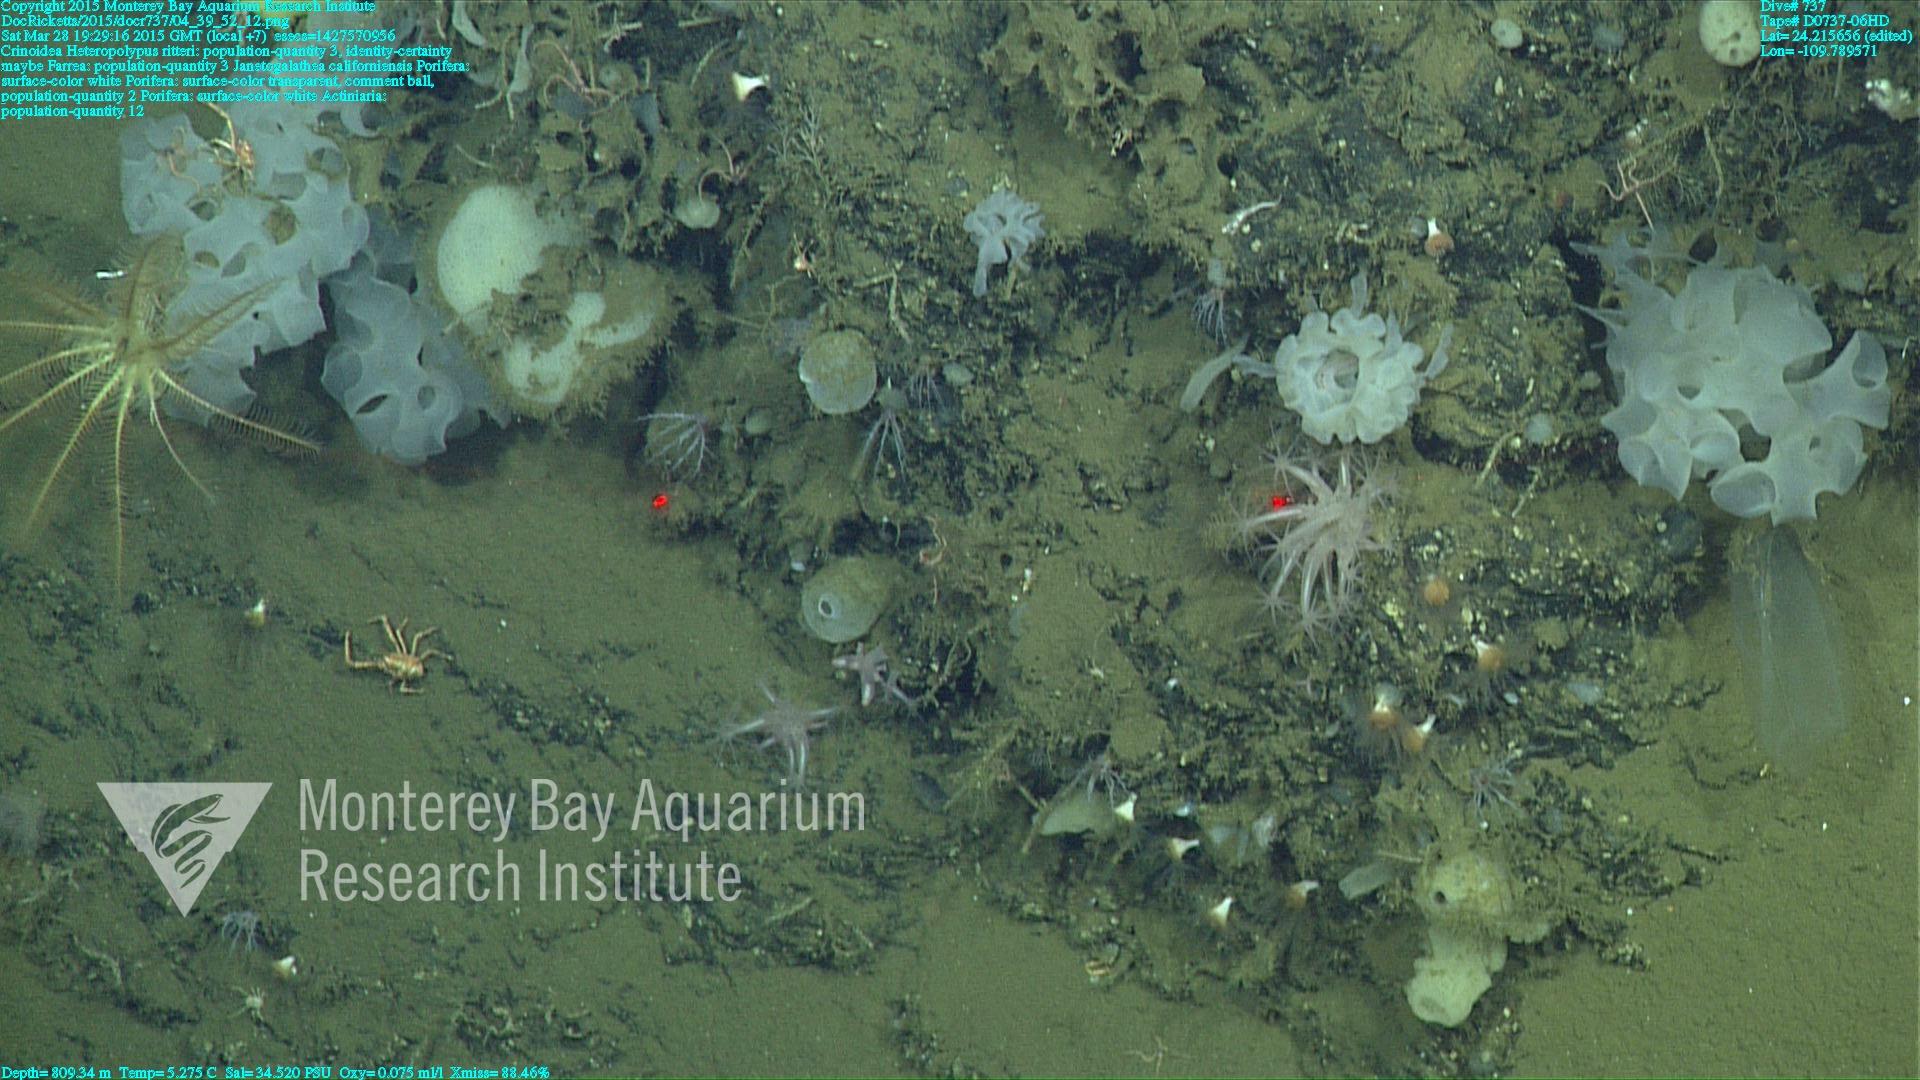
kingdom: Animalia
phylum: Cnidaria
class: Anthozoa
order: Scleralcyonacea
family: Coralliidae
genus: Heteropolypus
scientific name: Heteropolypus ritteri
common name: Ritter's soft coral
